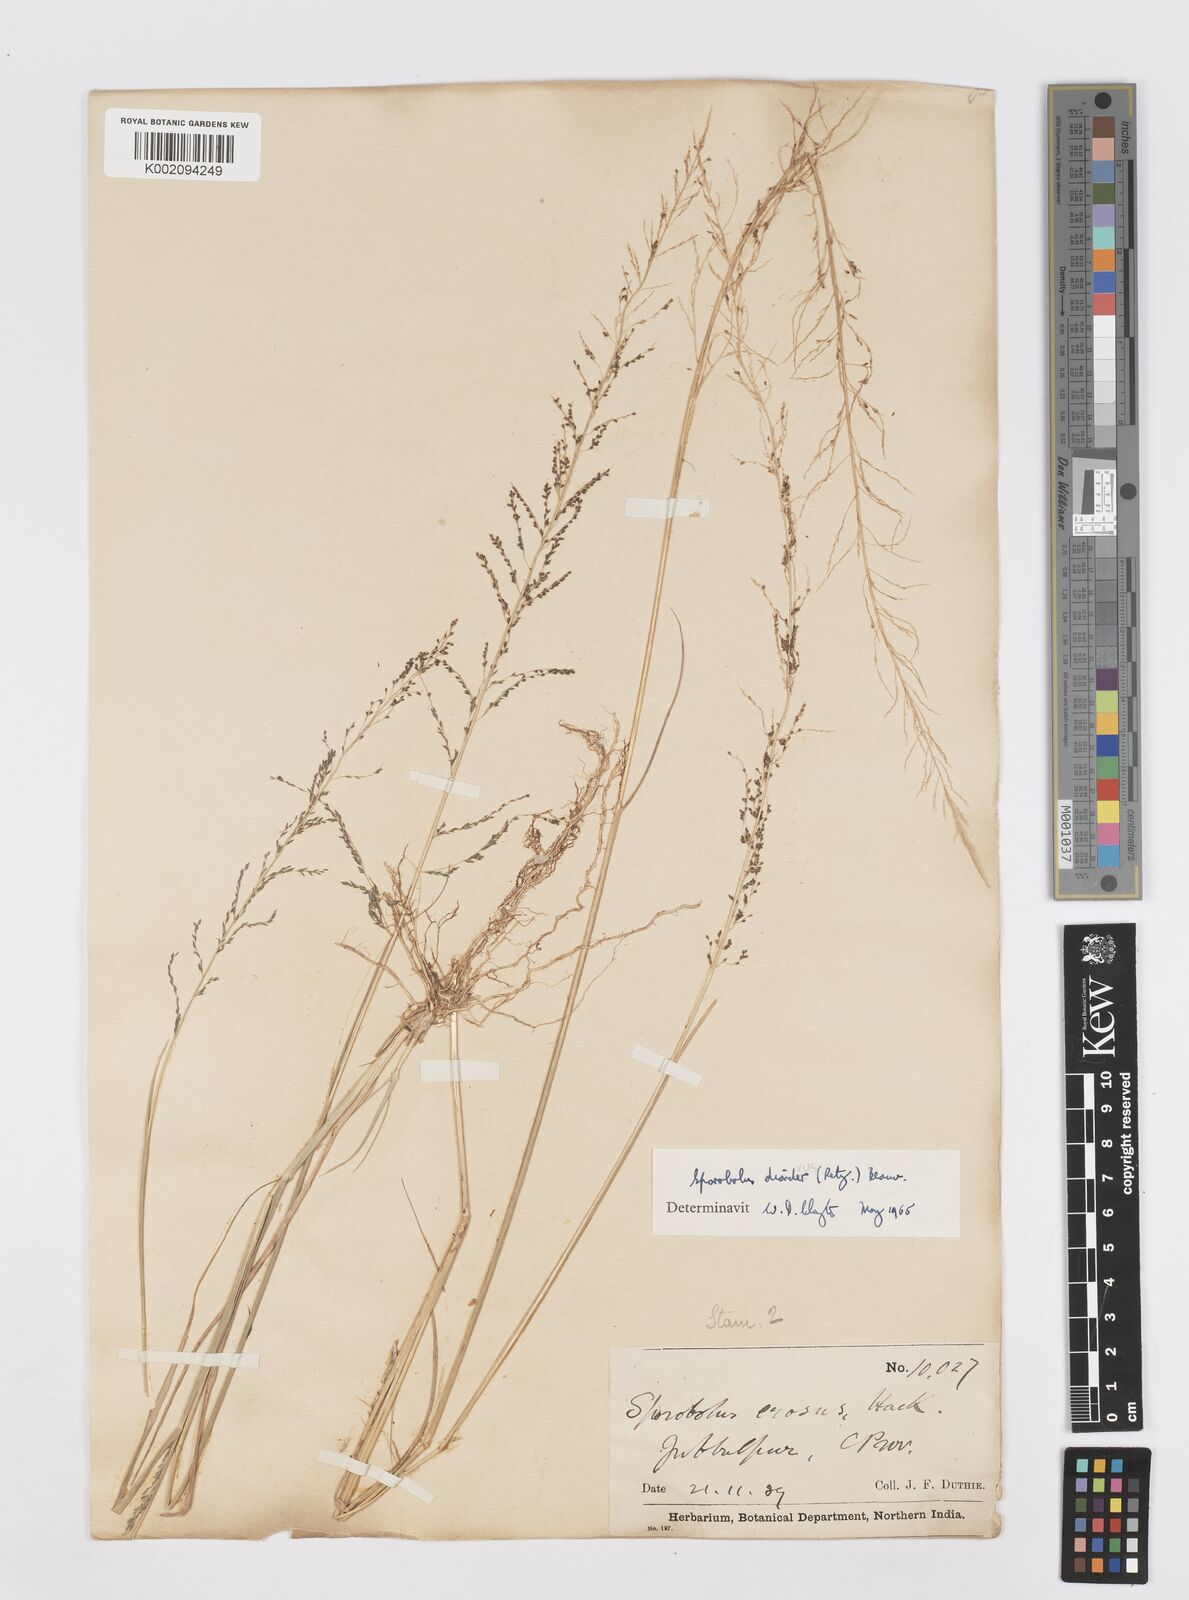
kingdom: Plantae
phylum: Tracheophyta
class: Liliopsida
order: Poales
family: Poaceae
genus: Sporobolus
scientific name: Sporobolus diandrus
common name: Tussock dropseed
